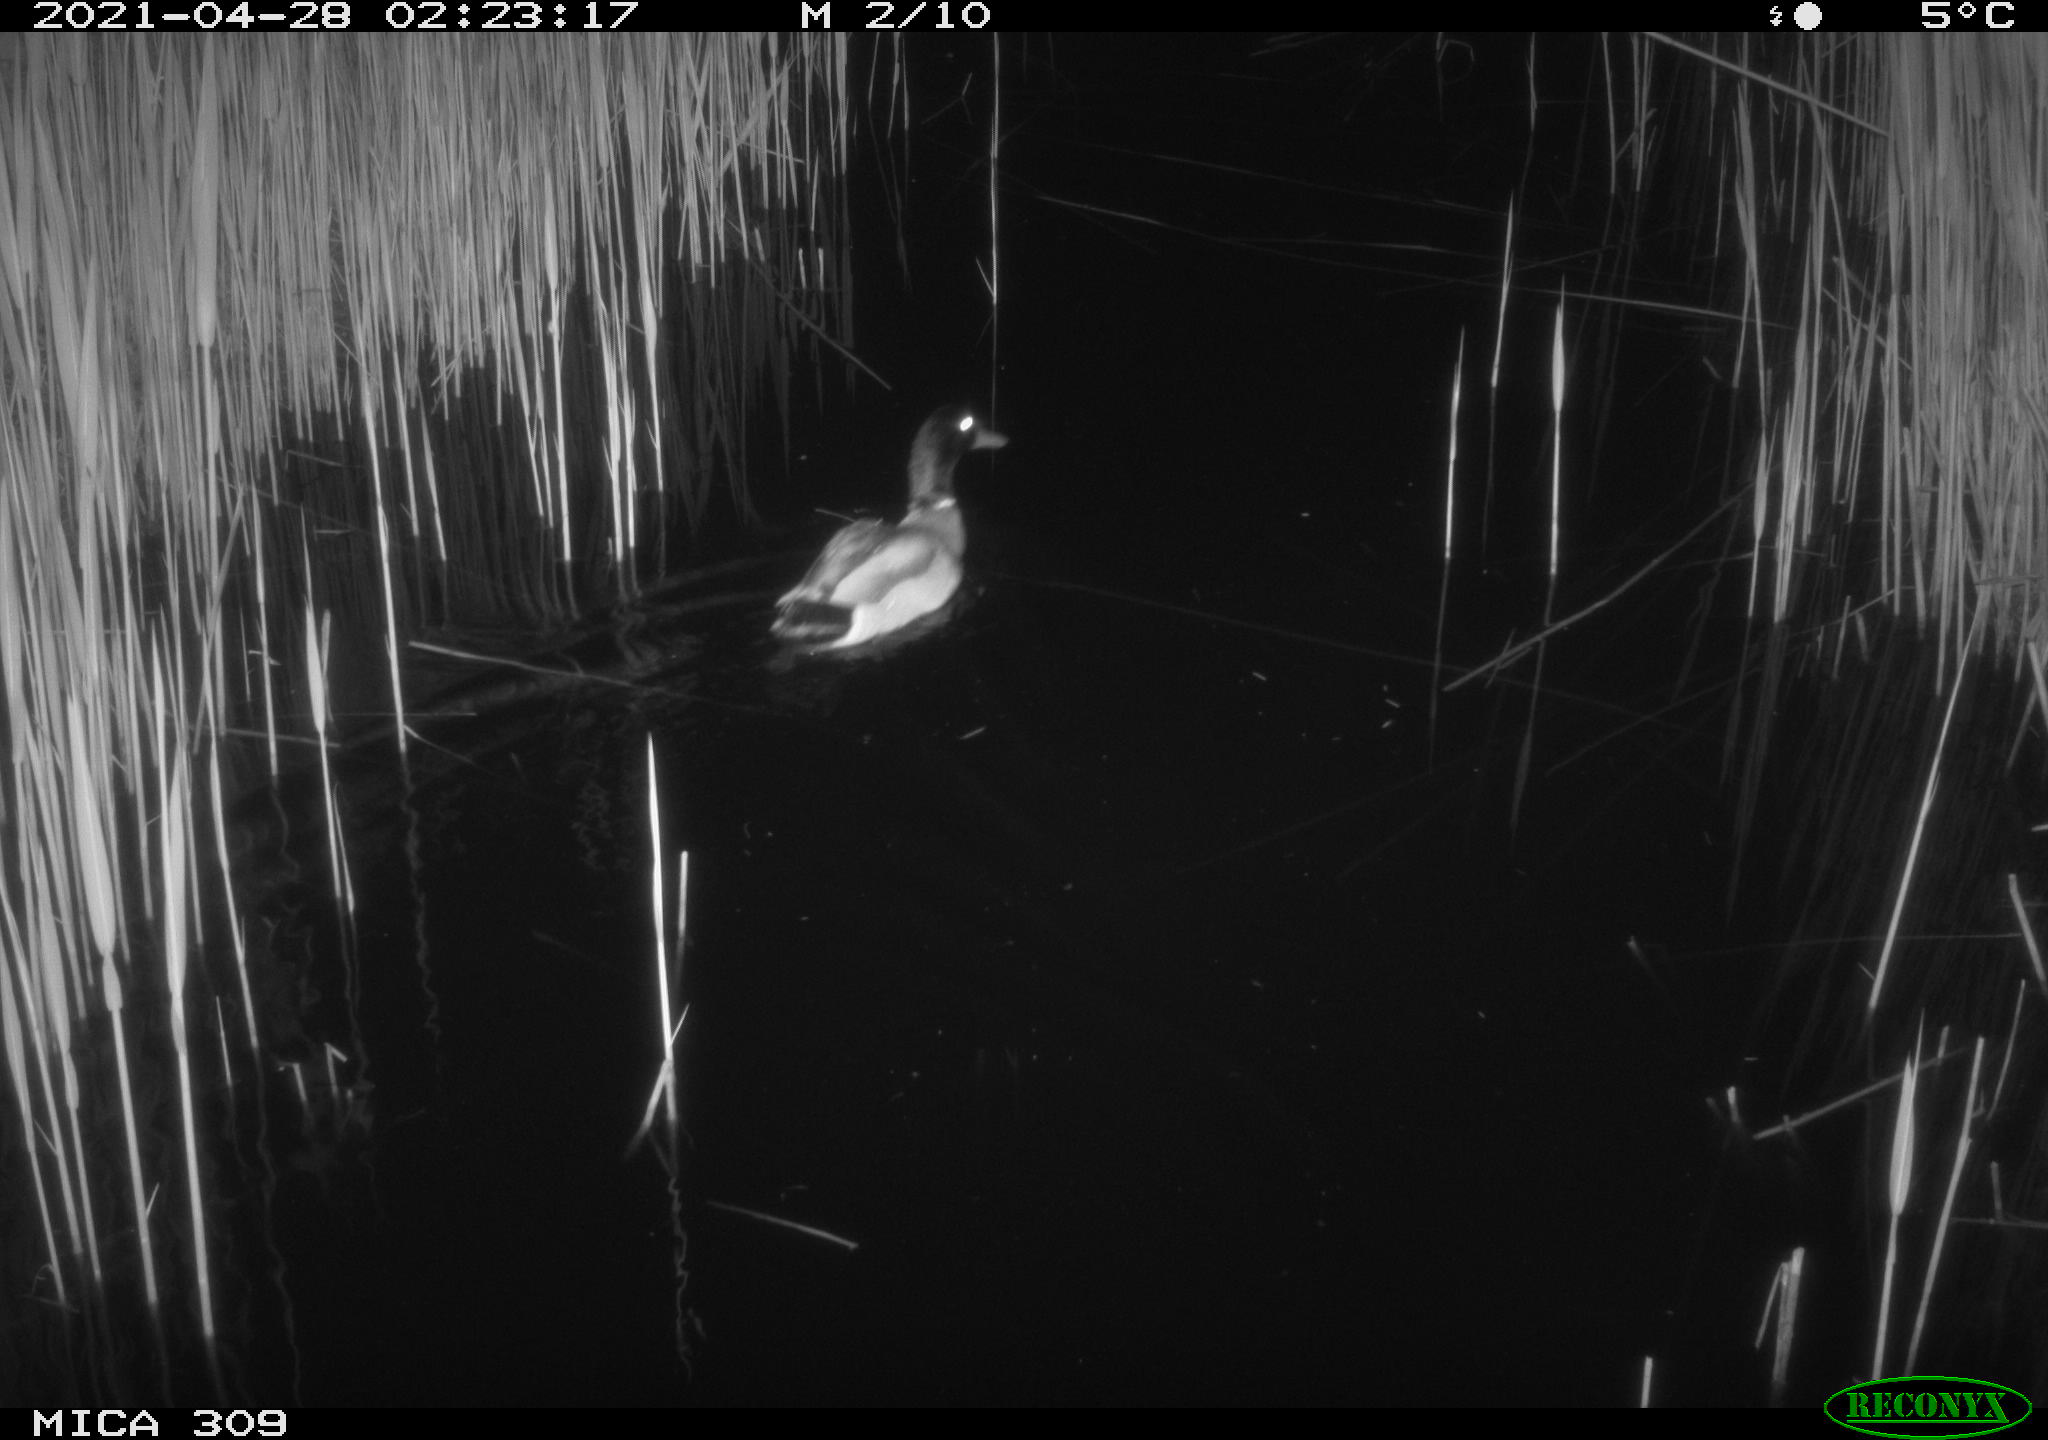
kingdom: Animalia
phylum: Chordata
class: Aves
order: Anseriformes
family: Anatidae
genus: Anas
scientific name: Anas platyrhynchos
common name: Mallard
